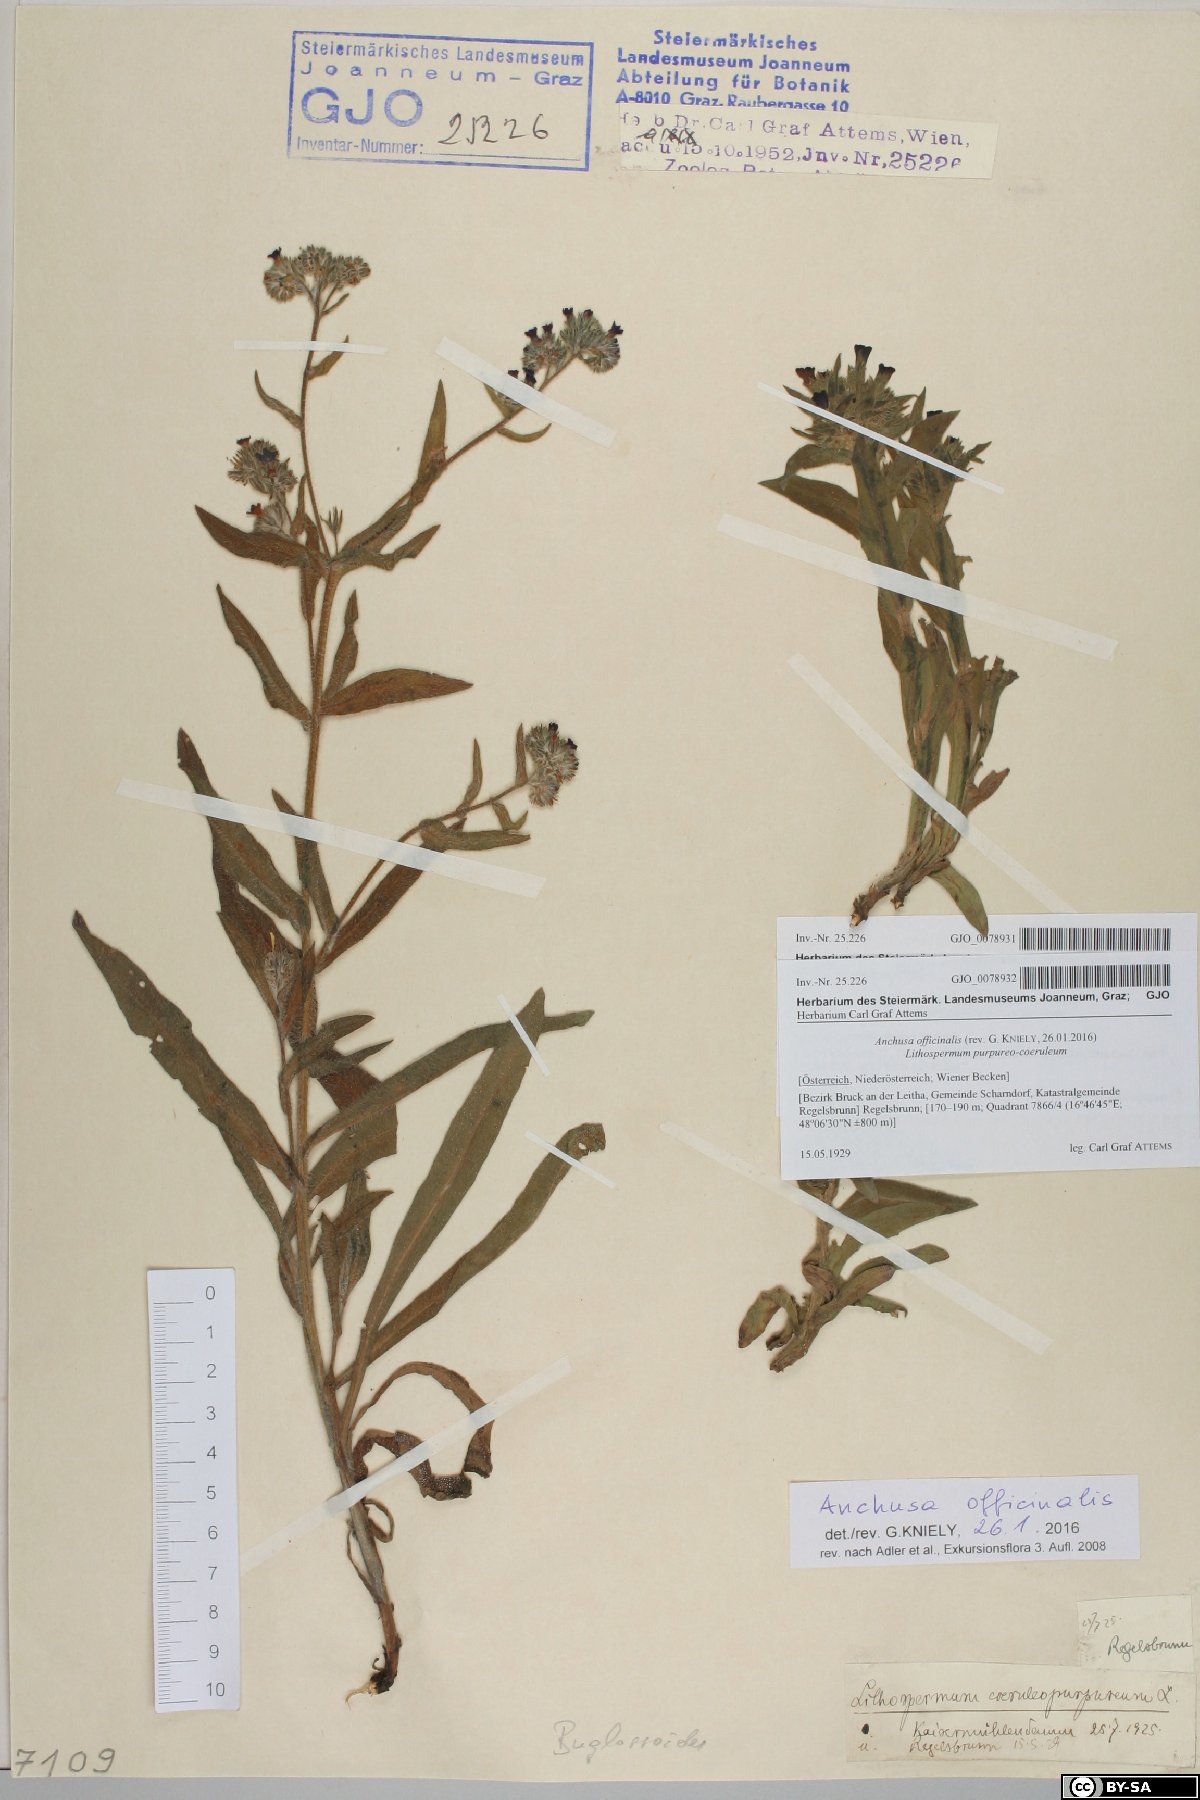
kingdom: Plantae
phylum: Tracheophyta
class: Magnoliopsida
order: Boraginales
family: Boraginaceae
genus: Anchusa
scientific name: Anchusa officinalis
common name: Alkanet
